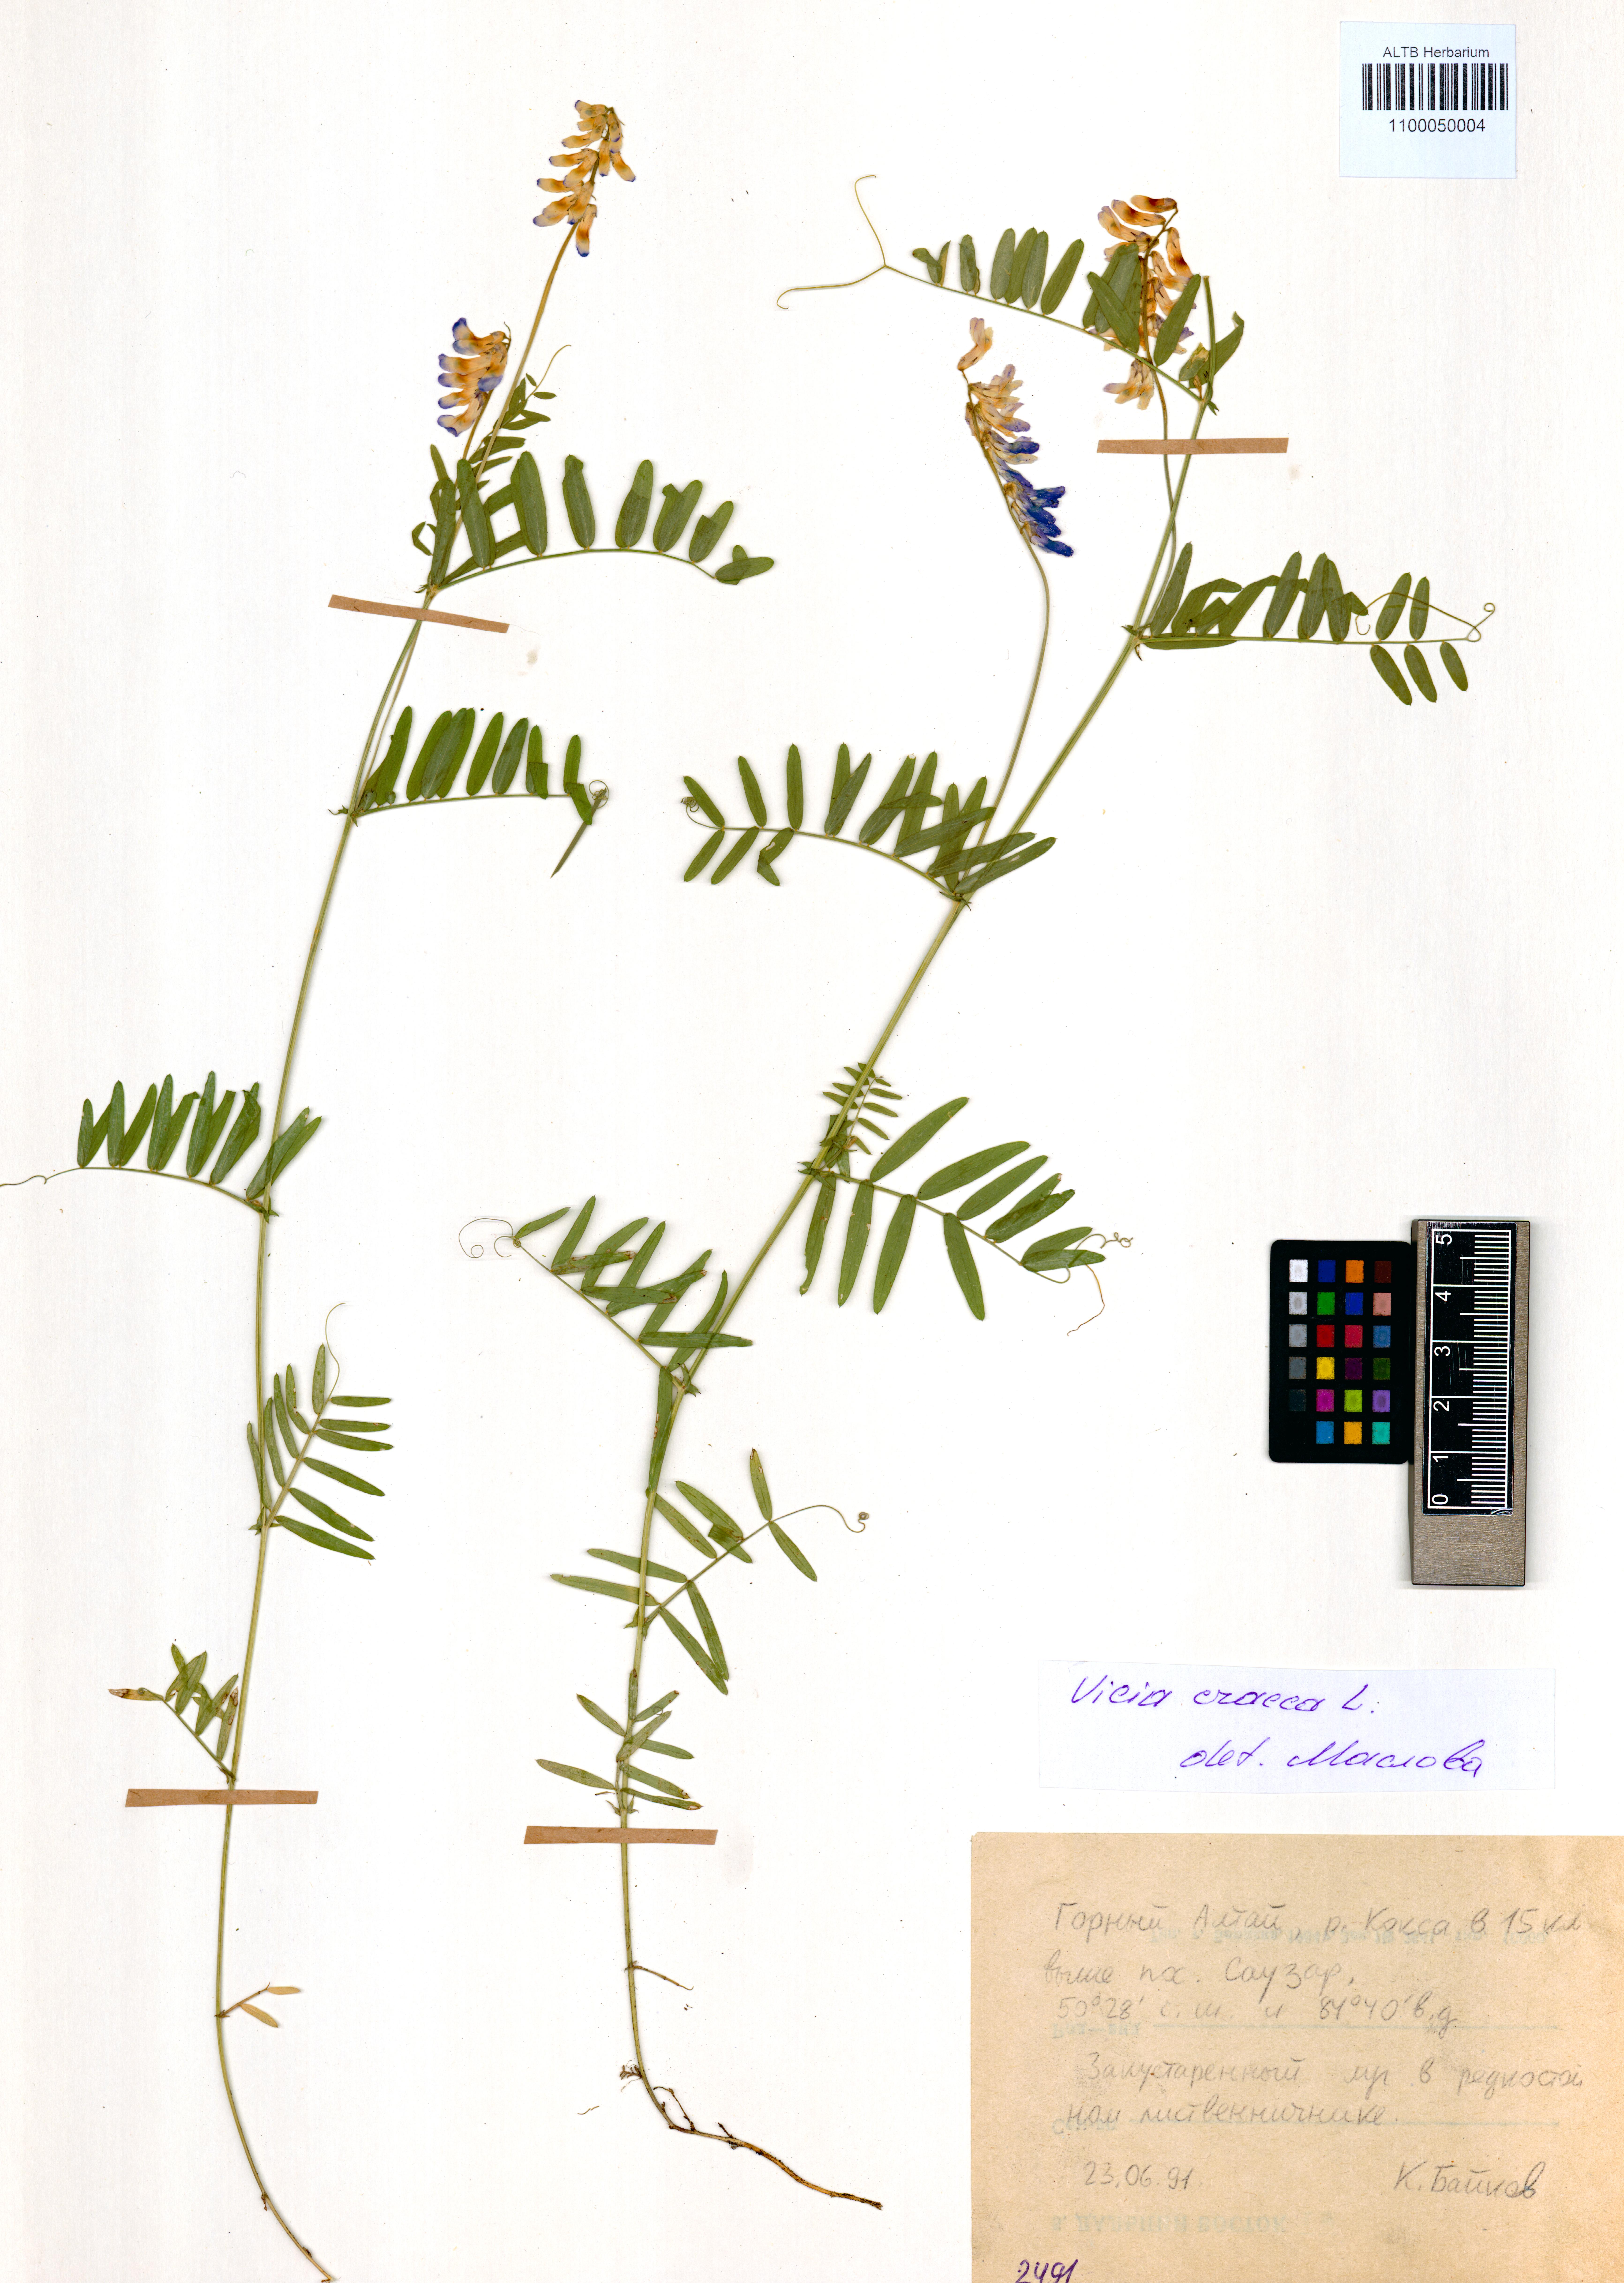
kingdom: Plantae
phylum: Tracheophyta
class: Magnoliopsida
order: Fabales
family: Fabaceae
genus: Vicia
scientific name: Vicia cracca
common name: Bird vetch
